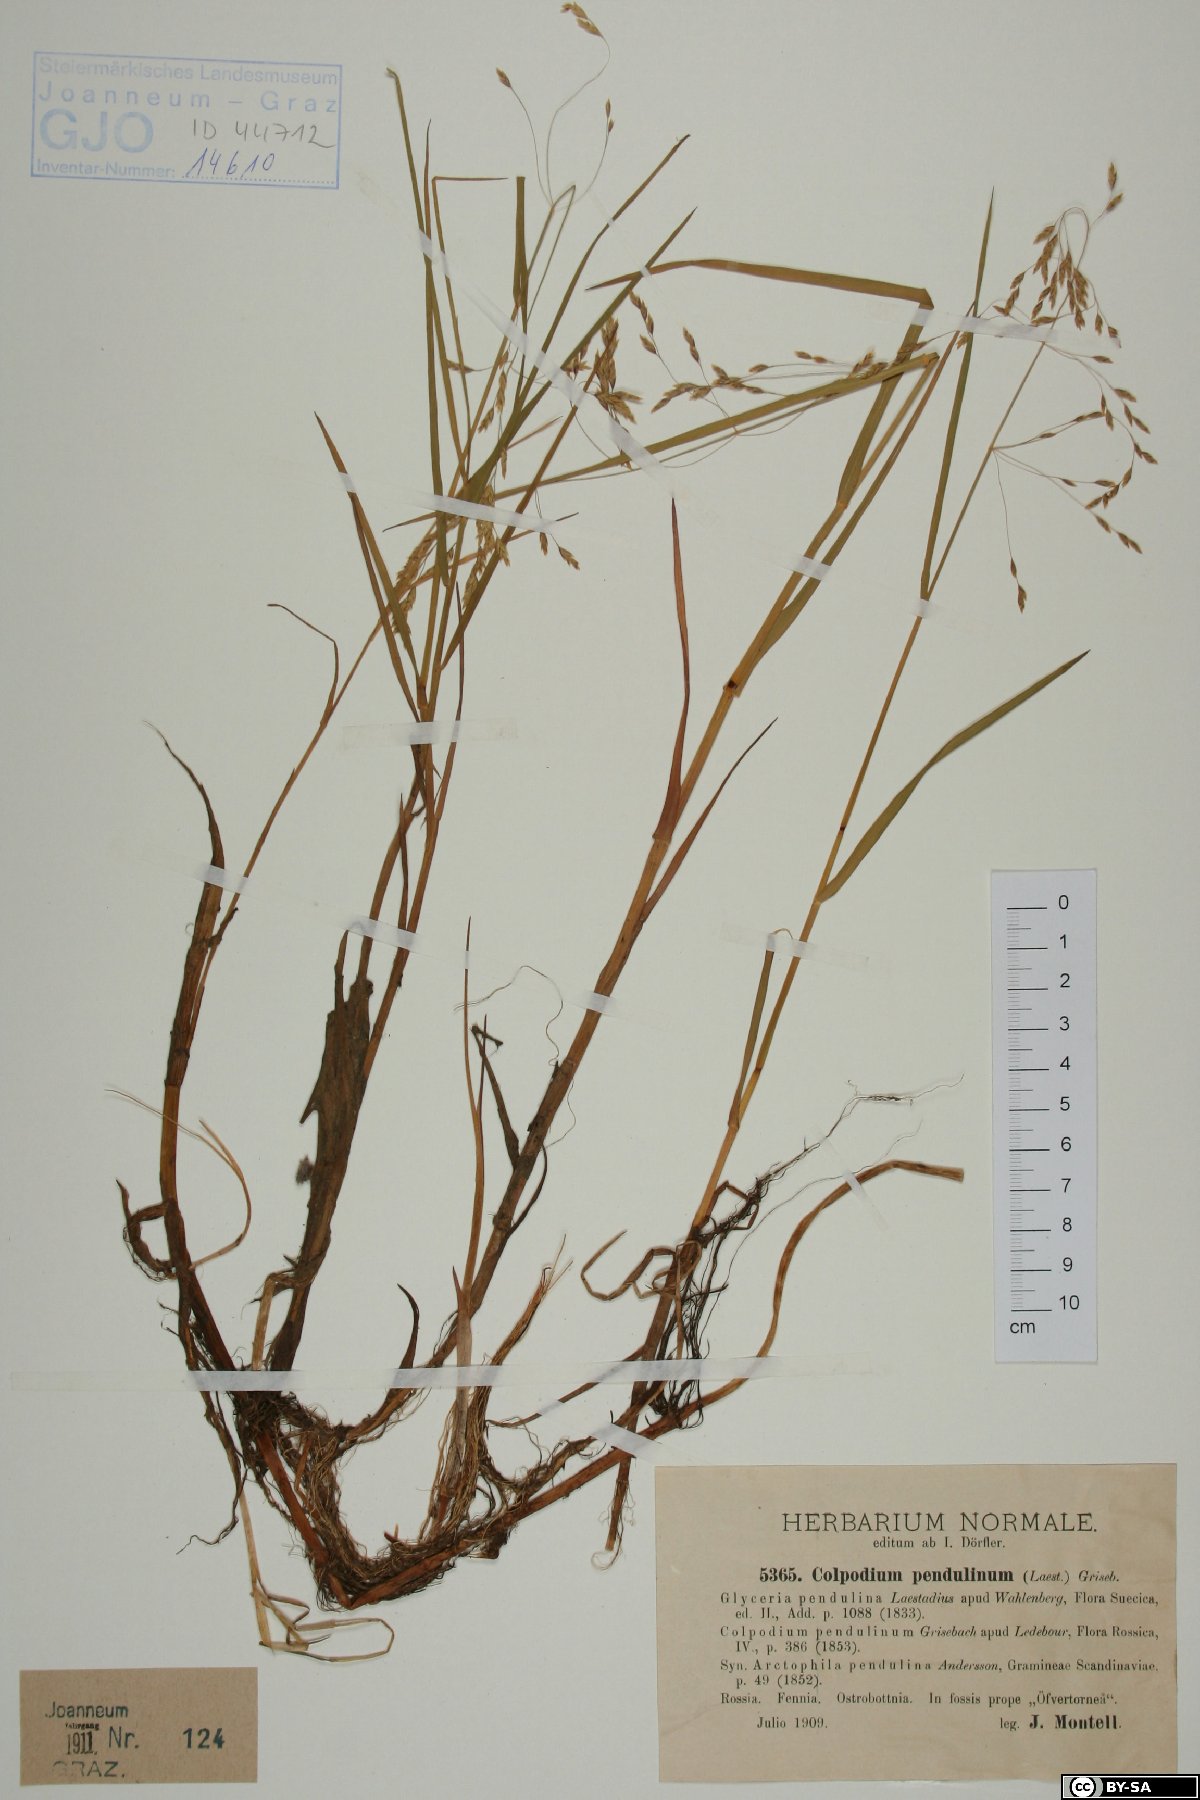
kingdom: Plantae
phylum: Tracheophyta
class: Liliopsida
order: Poales
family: Poaceae
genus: Dupontia
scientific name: Dupontia fulva
